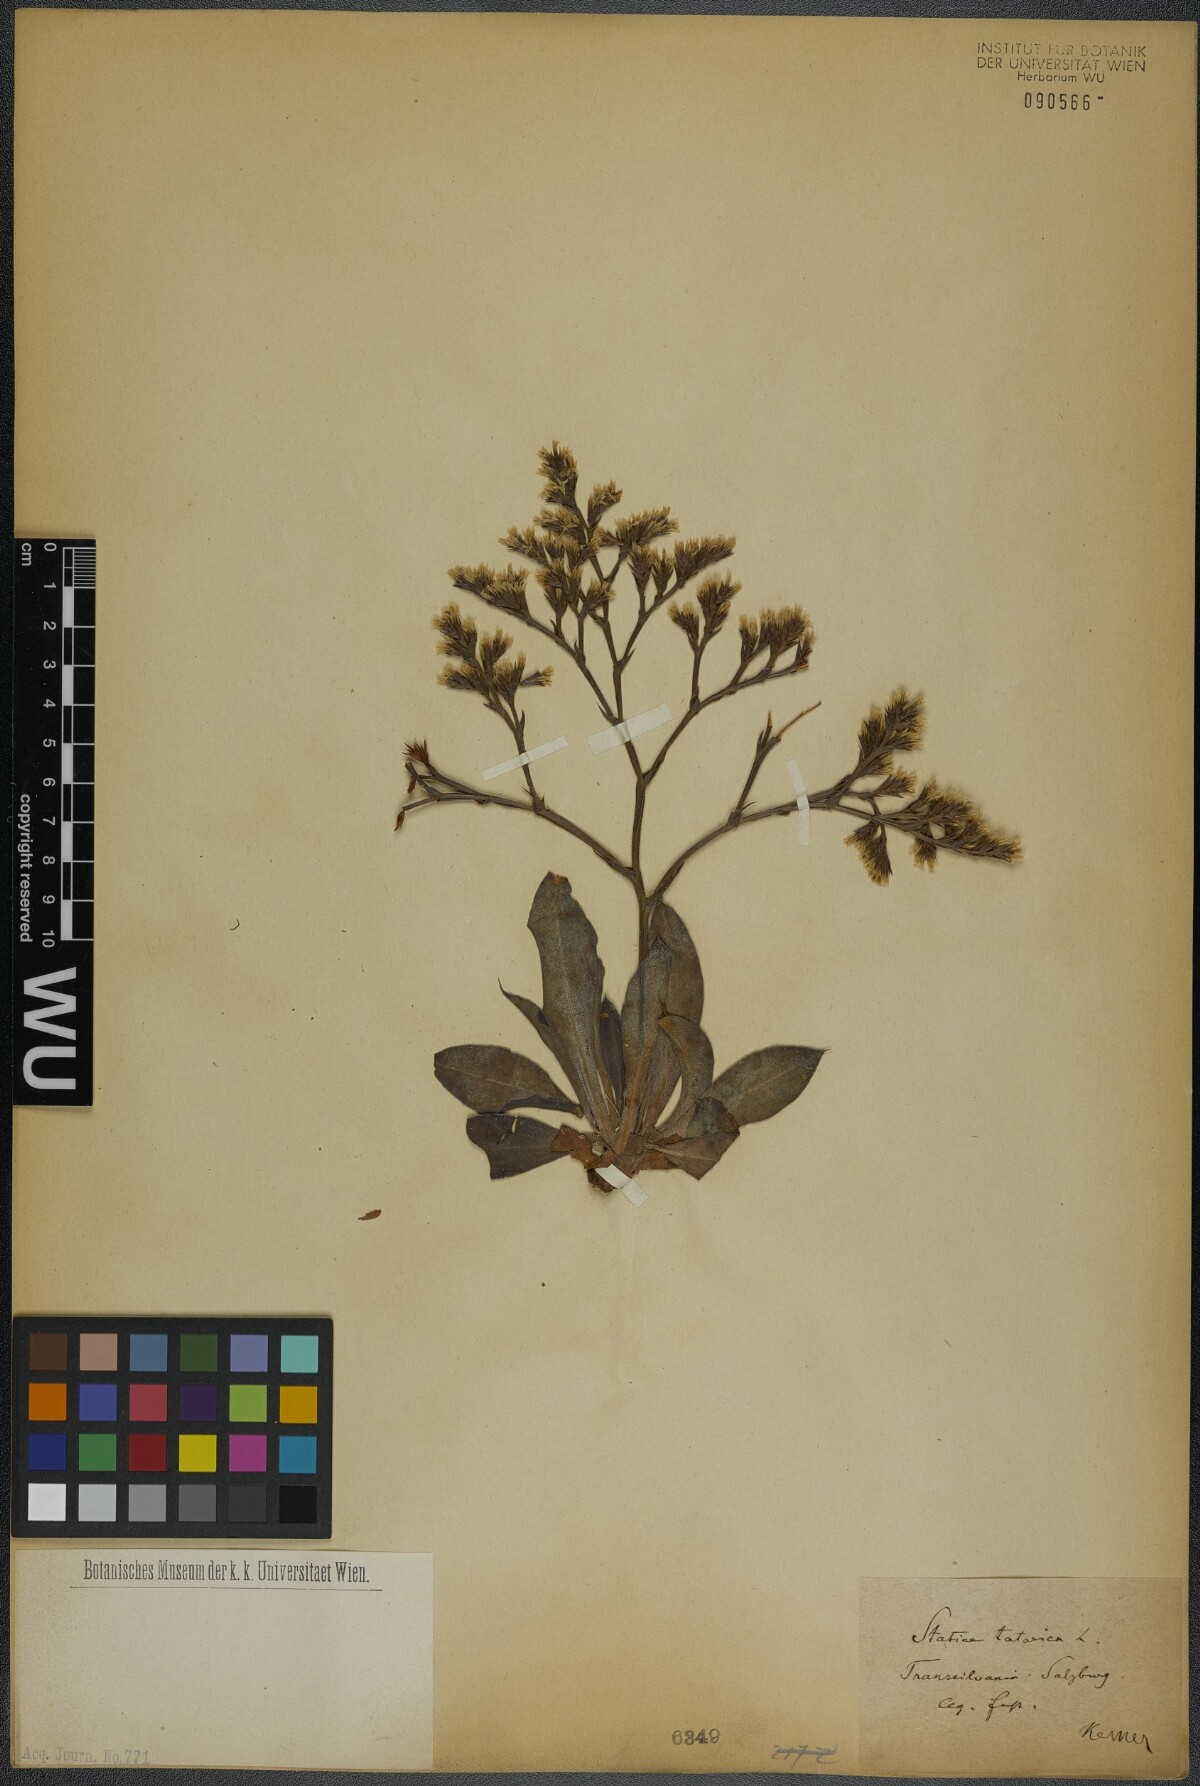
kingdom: Plantae
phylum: Tracheophyta
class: Magnoliopsida
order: Caryophyllales
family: Plumbaginaceae
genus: Goniolimon
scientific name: Goniolimon tataricum
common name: Statice
